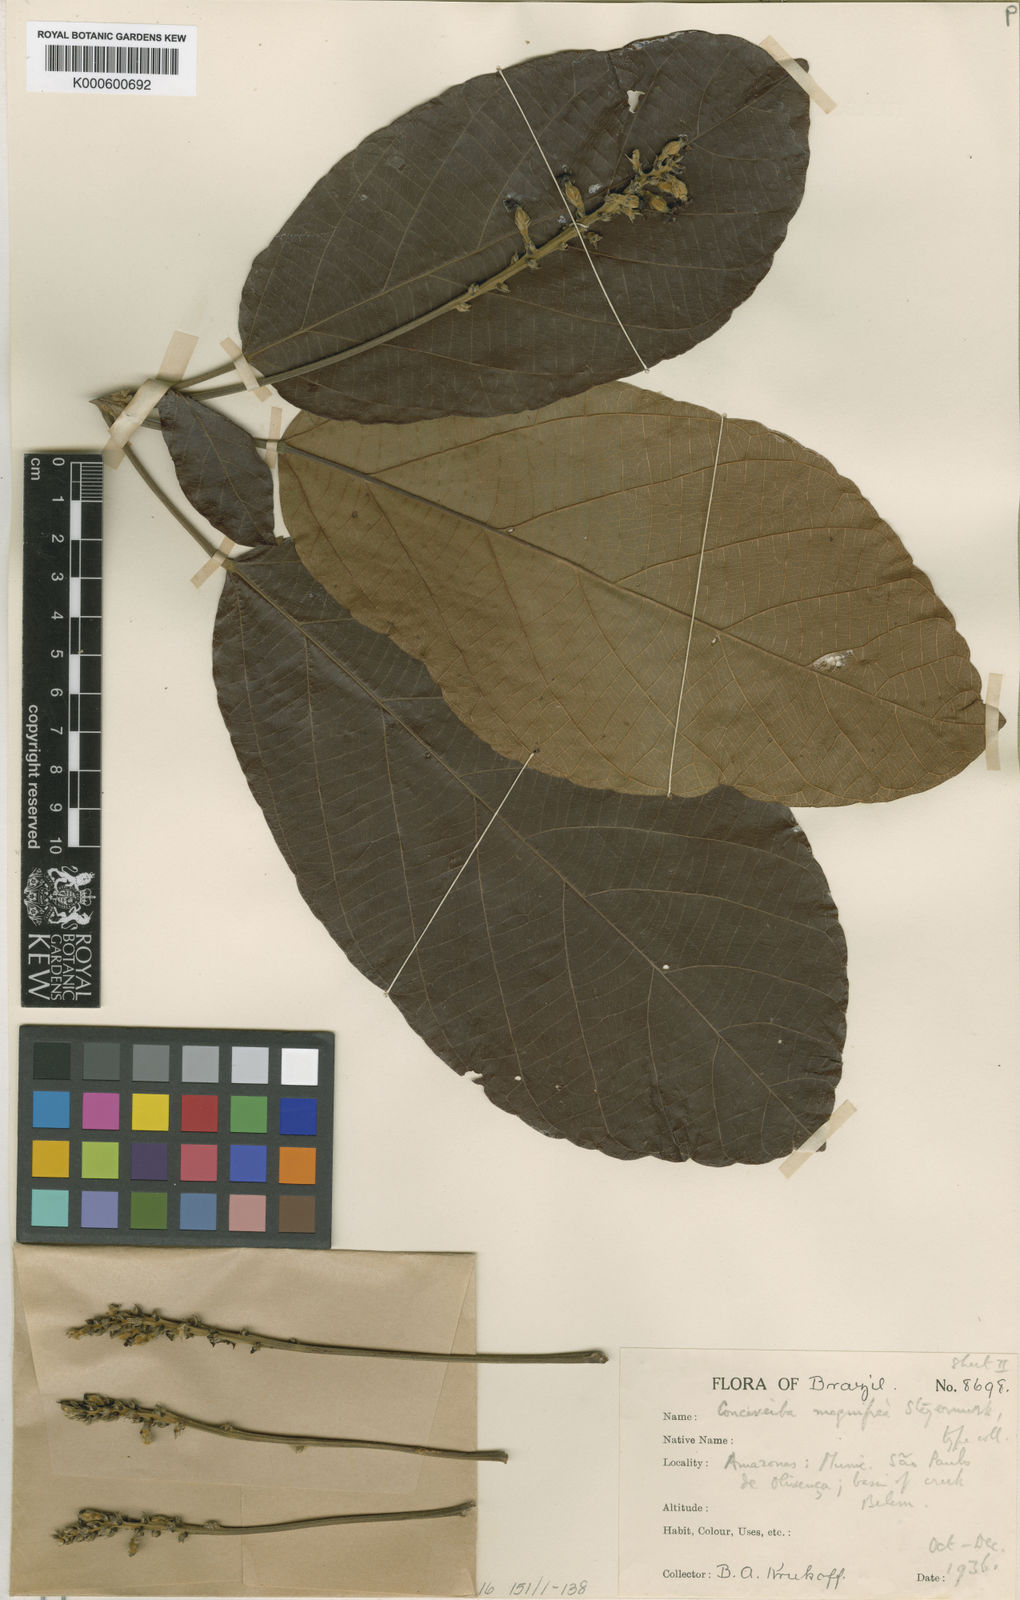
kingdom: Plantae
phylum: Tracheophyta
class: Magnoliopsida
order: Malpighiales
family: Euphorbiaceae
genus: Conceveiba
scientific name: Conceveiba latifolia
